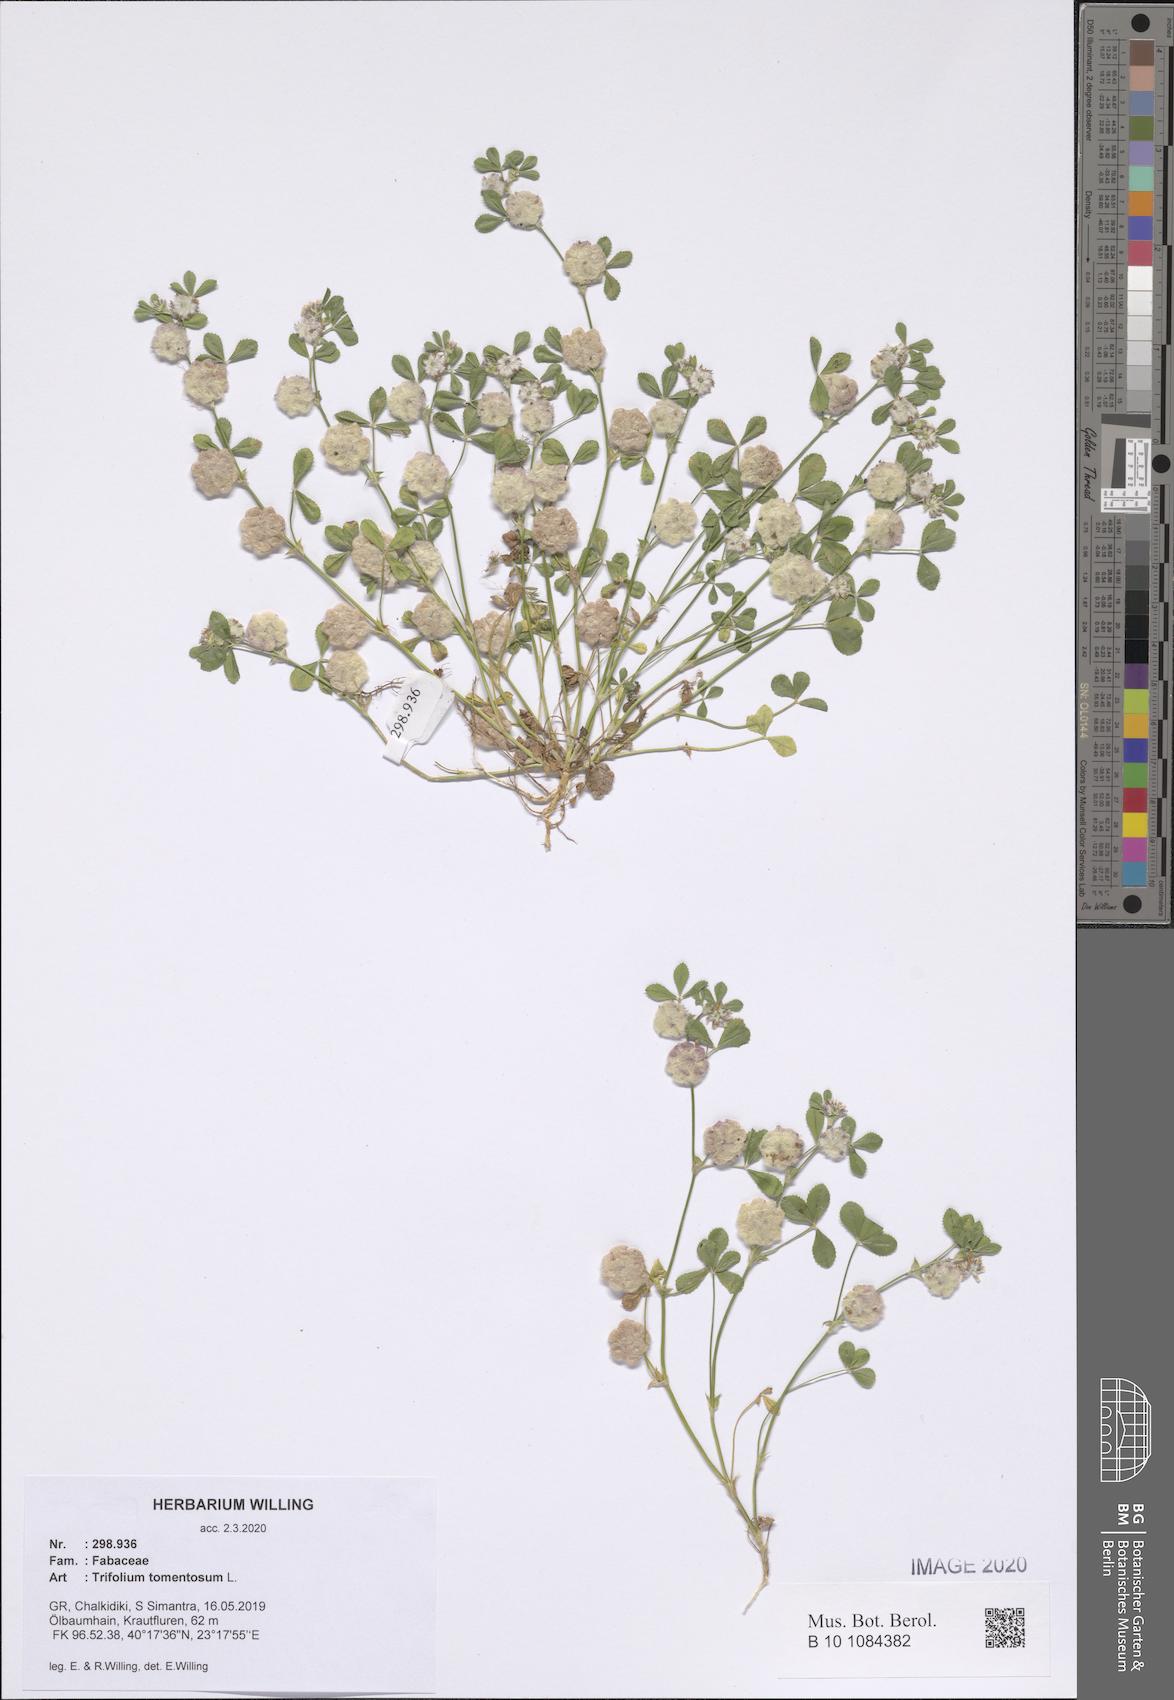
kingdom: Plantae
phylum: Tracheophyta
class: Magnoliopsida
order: Fabales
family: Fabaceae
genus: Trifolium
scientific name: Trifolium tomentosum
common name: Woolly clover
